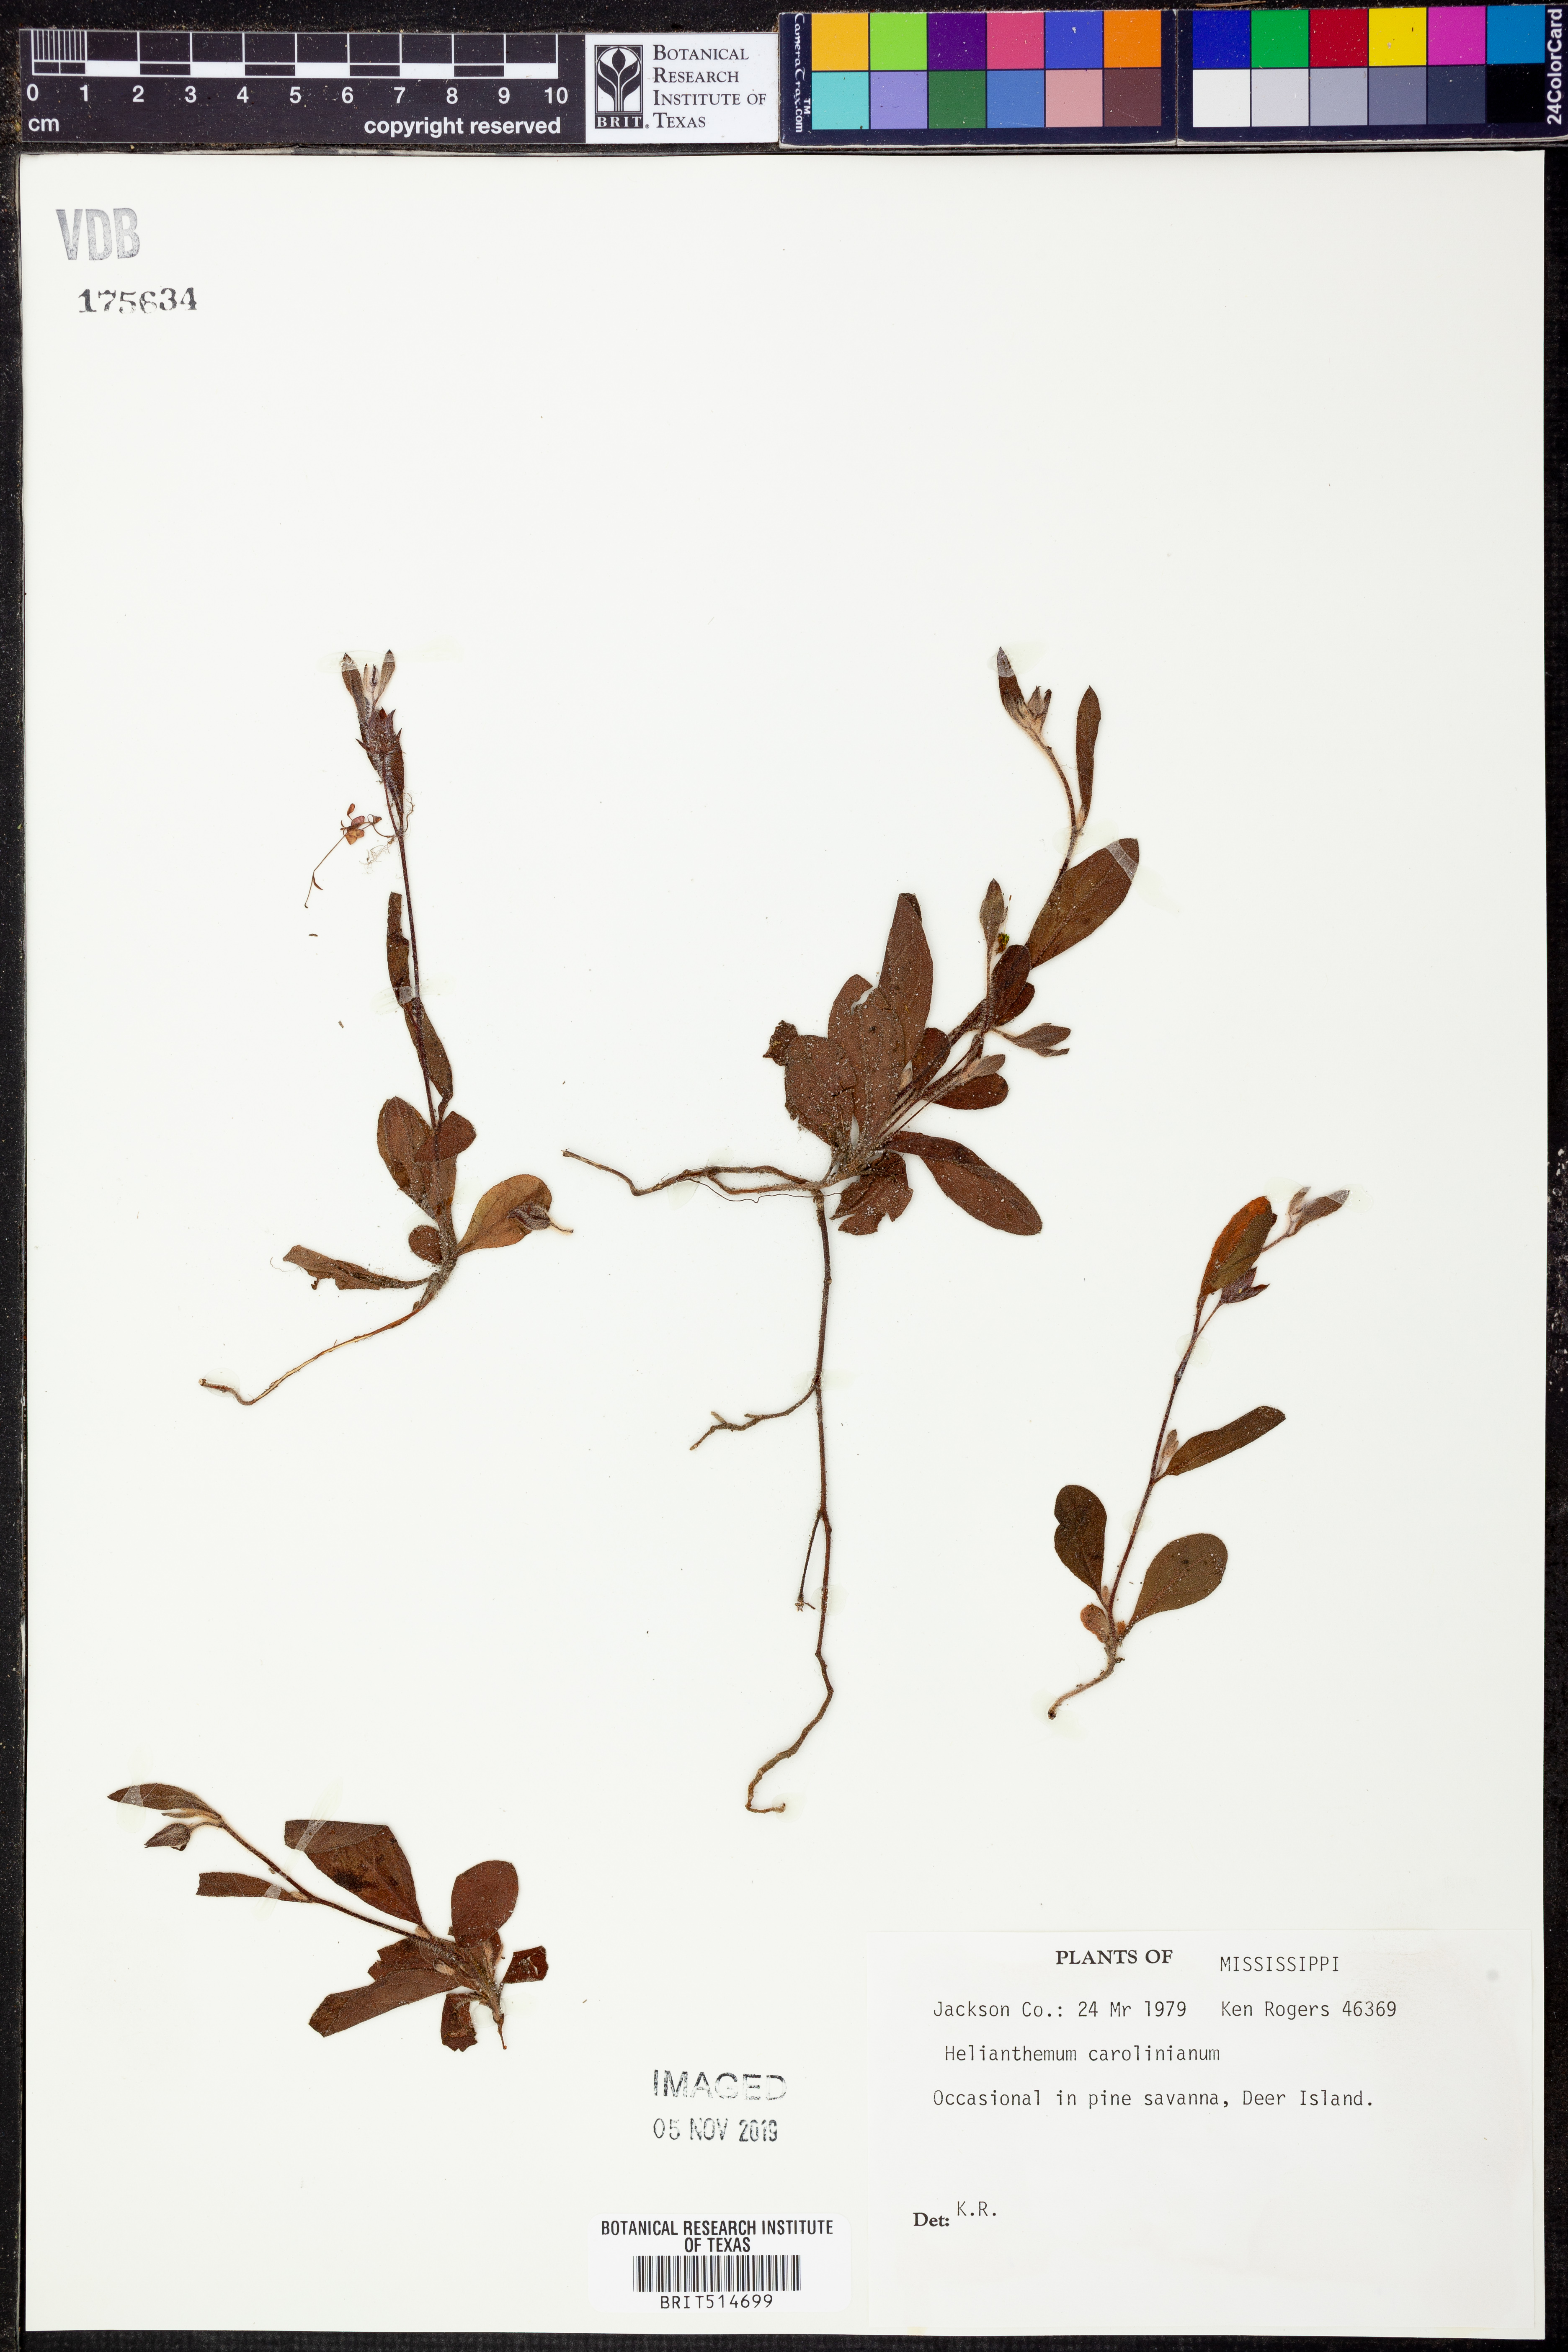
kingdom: Plantae
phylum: Tracheophyta
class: Magnoliopsida
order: Malvales
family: Cistaceae
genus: Crocanthemum
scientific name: Crocanthemum carolinianum
